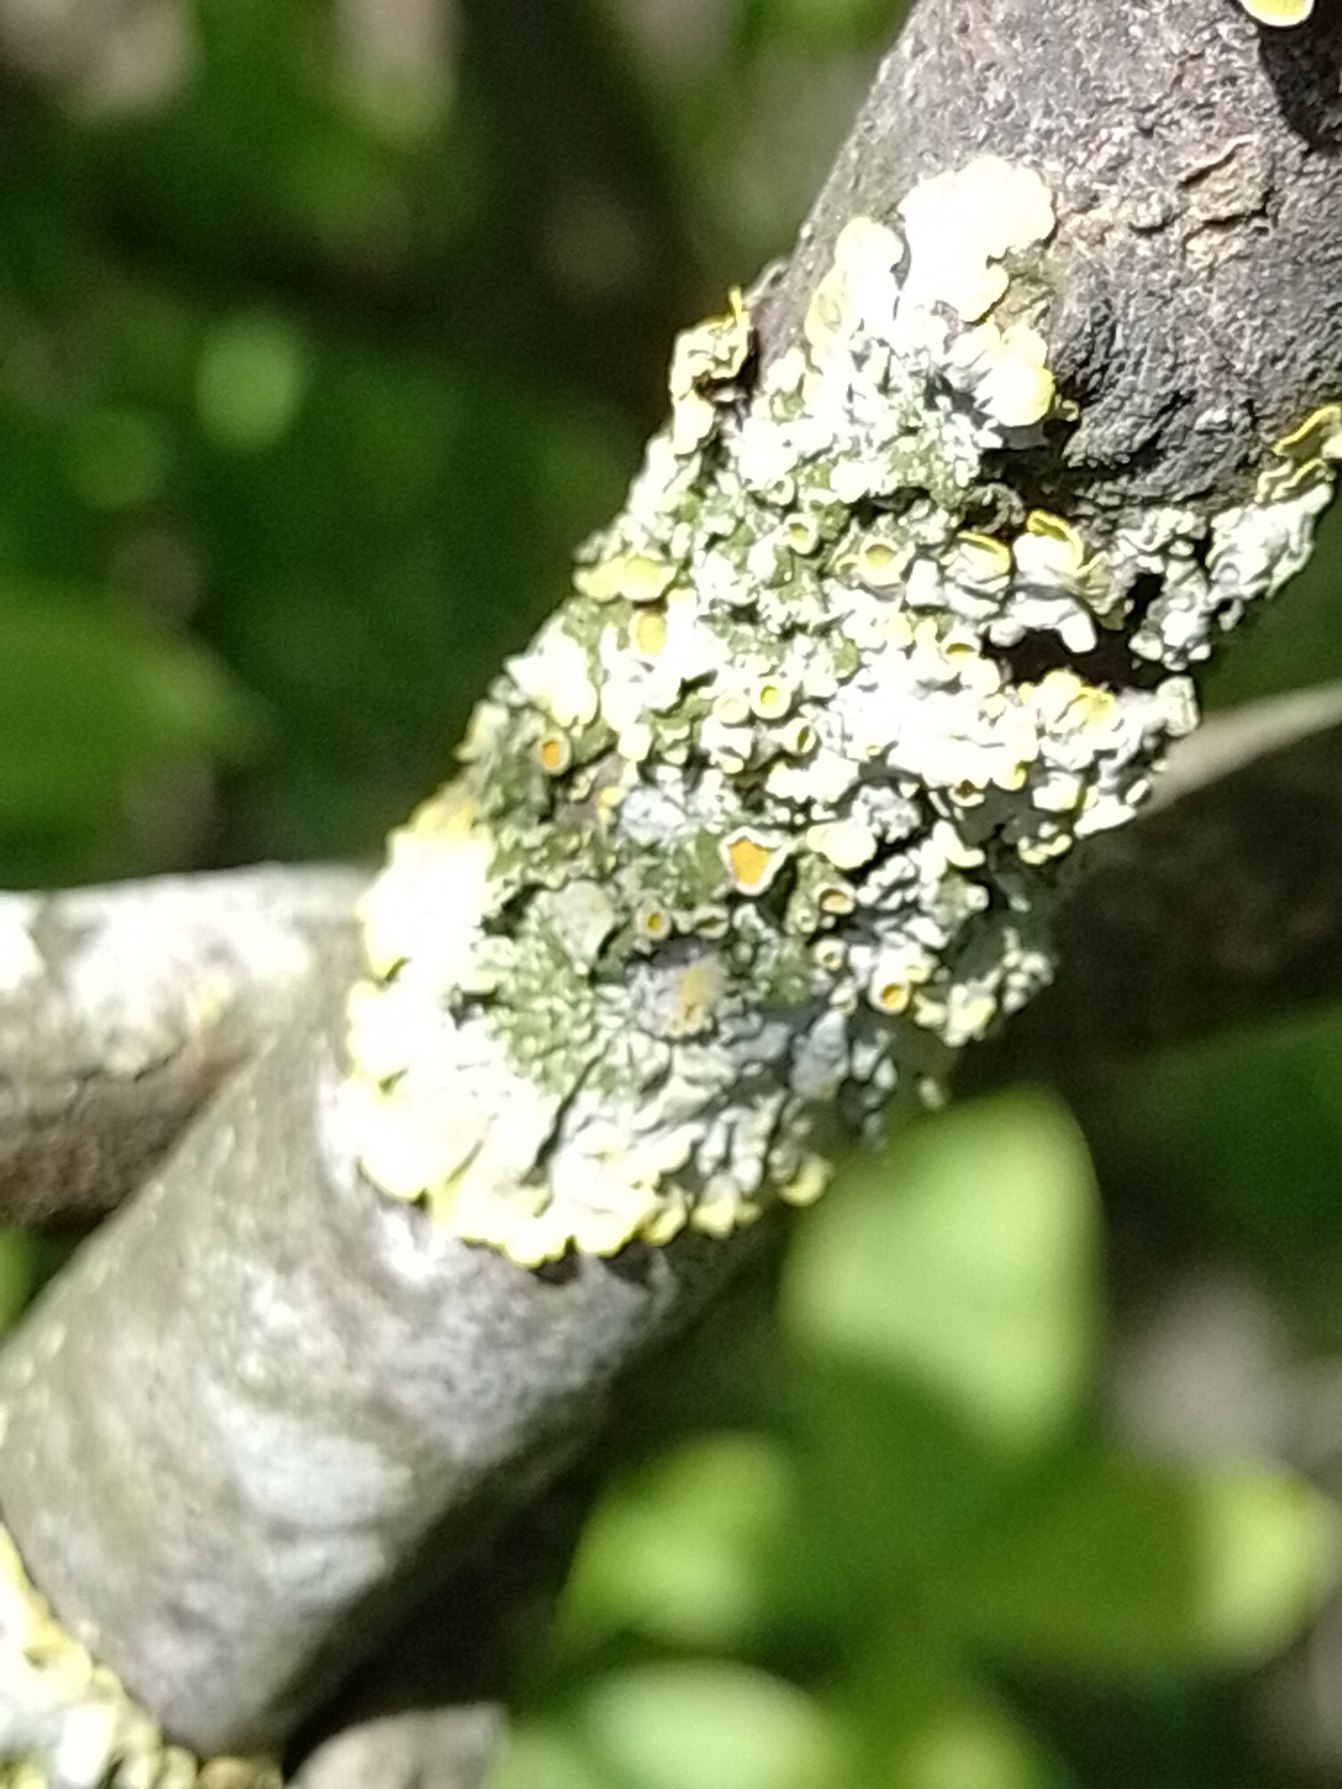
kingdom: Fungi
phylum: Ascomycota
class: Lecanoromycetes
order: Teloschistales
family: Teloschistaceae
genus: Xanthoria
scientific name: Xanthoria parietina
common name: Almindelig væggelav
